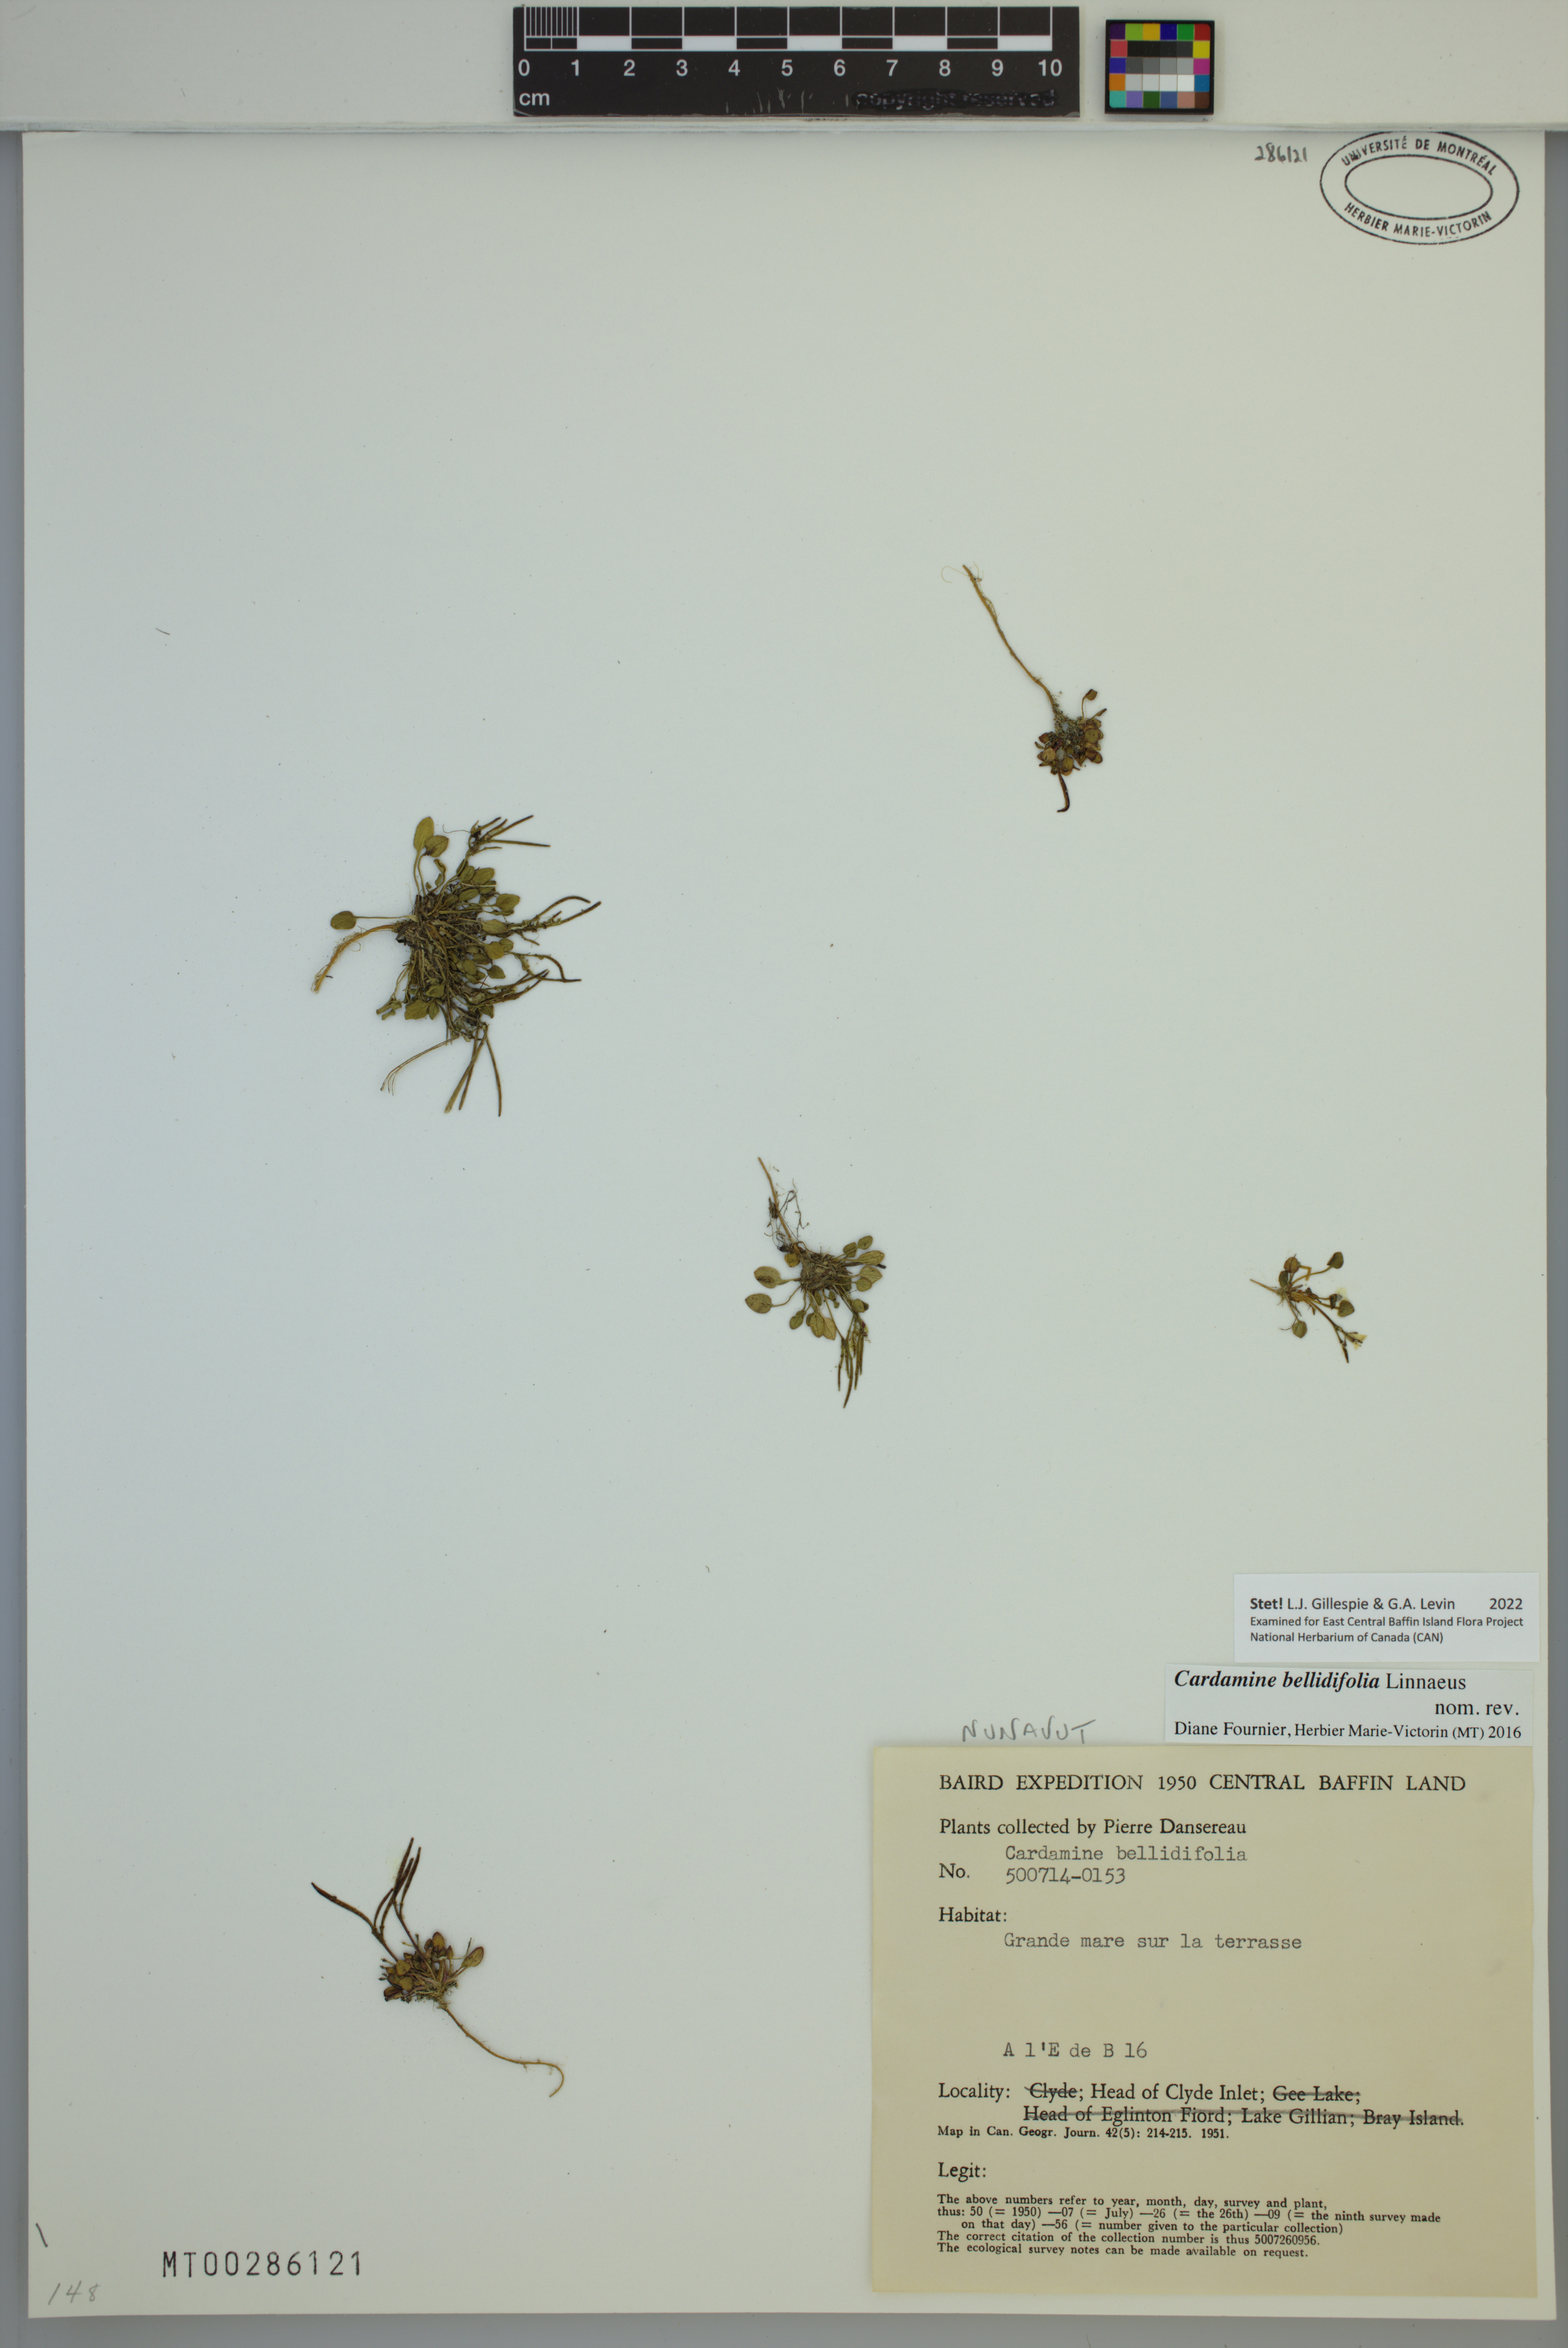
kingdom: Plantae
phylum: Tracheophyta
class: Magnoliopsida
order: Brassicales
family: Brassicaceae
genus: Cardamine
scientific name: Cardamine bellidifolia
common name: Alpine bittercress
